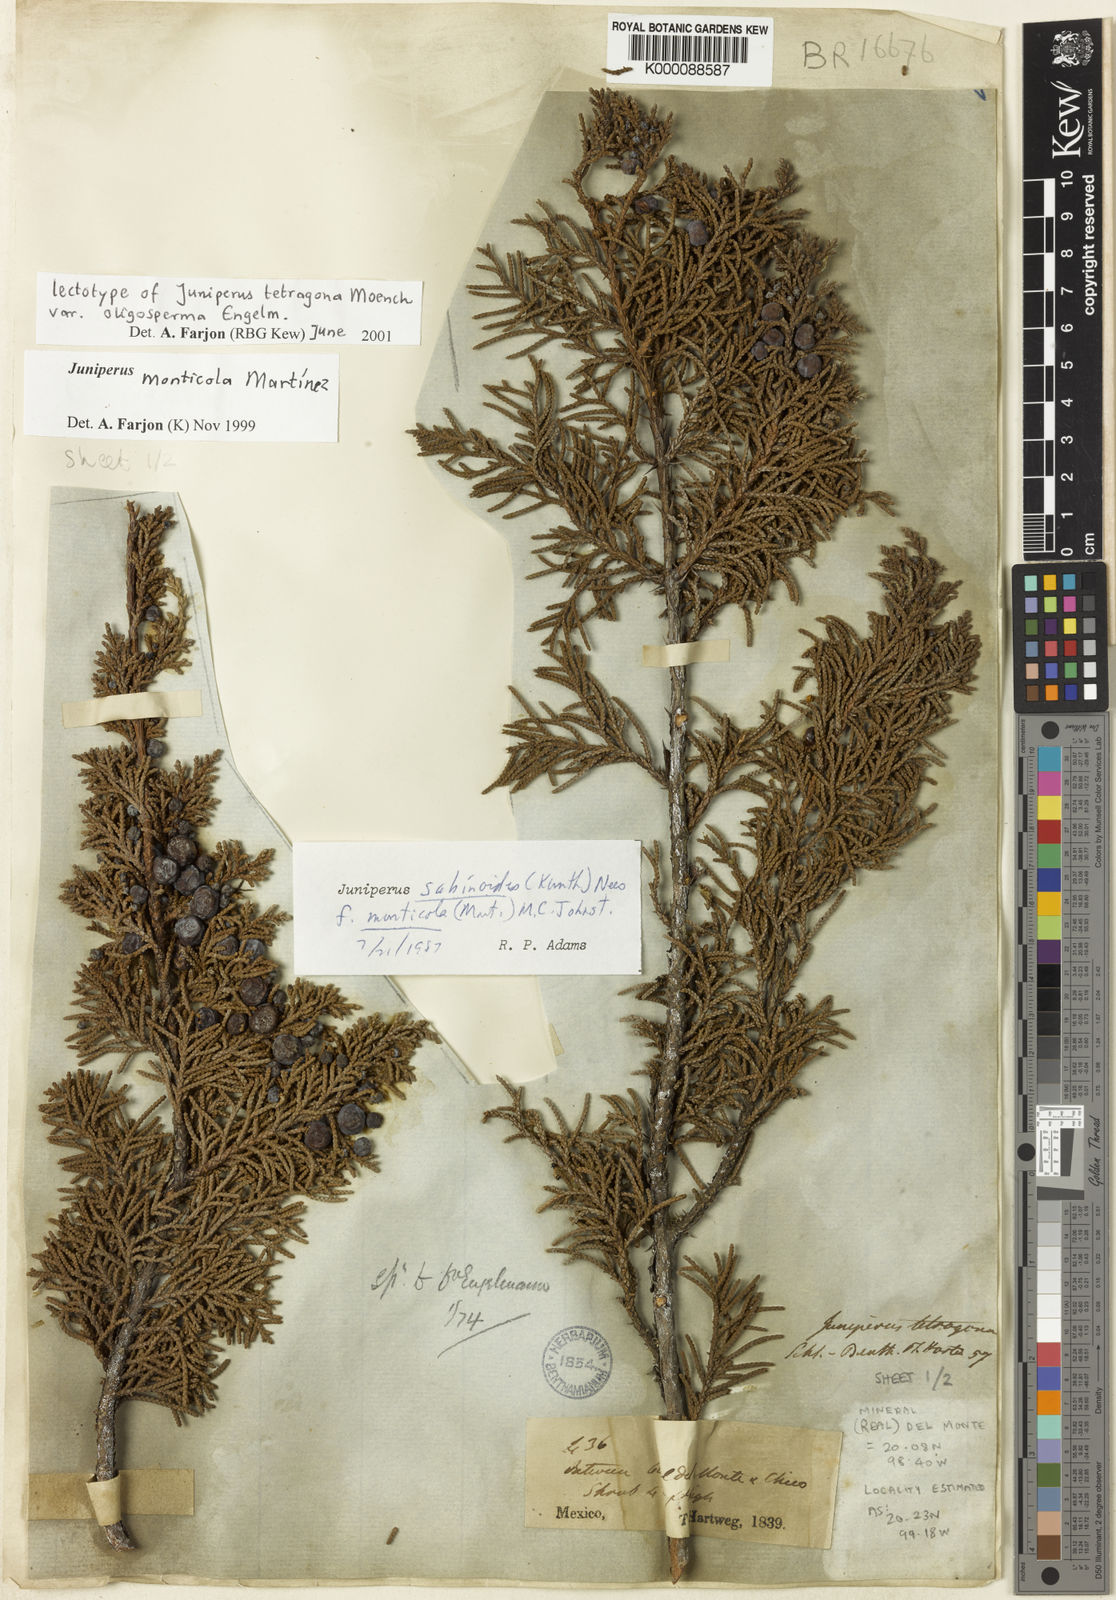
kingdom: Plantae
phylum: Tracheophyta
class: Pinopsida
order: Pinales
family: Cupressaceae
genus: Juniperus
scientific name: Juniperus monticola
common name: Mexican juniper
